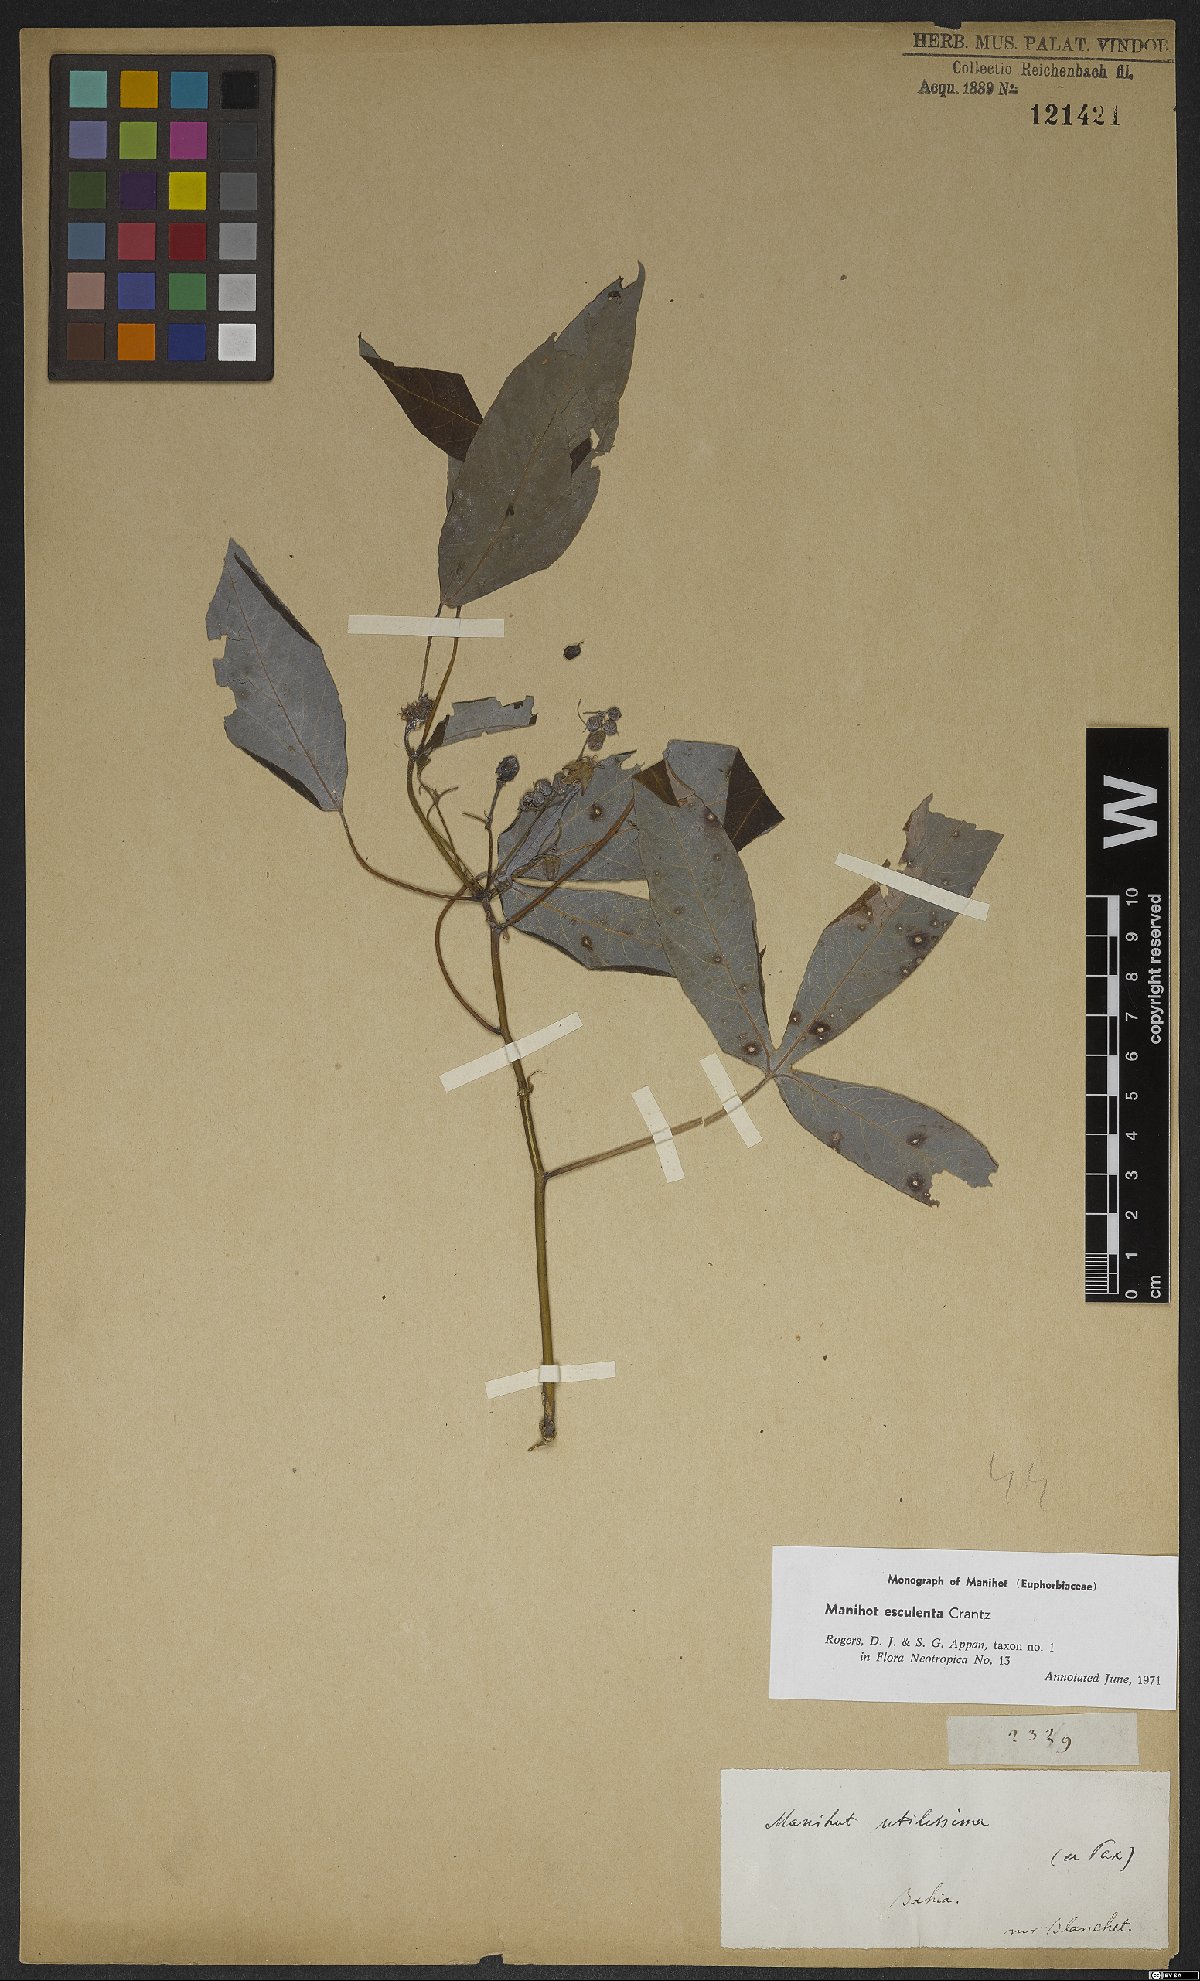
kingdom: Plantae
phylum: Tracheophyta
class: Magnoliopsida
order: Malpighiales
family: Euphorbiaceae
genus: Manihot
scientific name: Manihot esculenta
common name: Cassava
